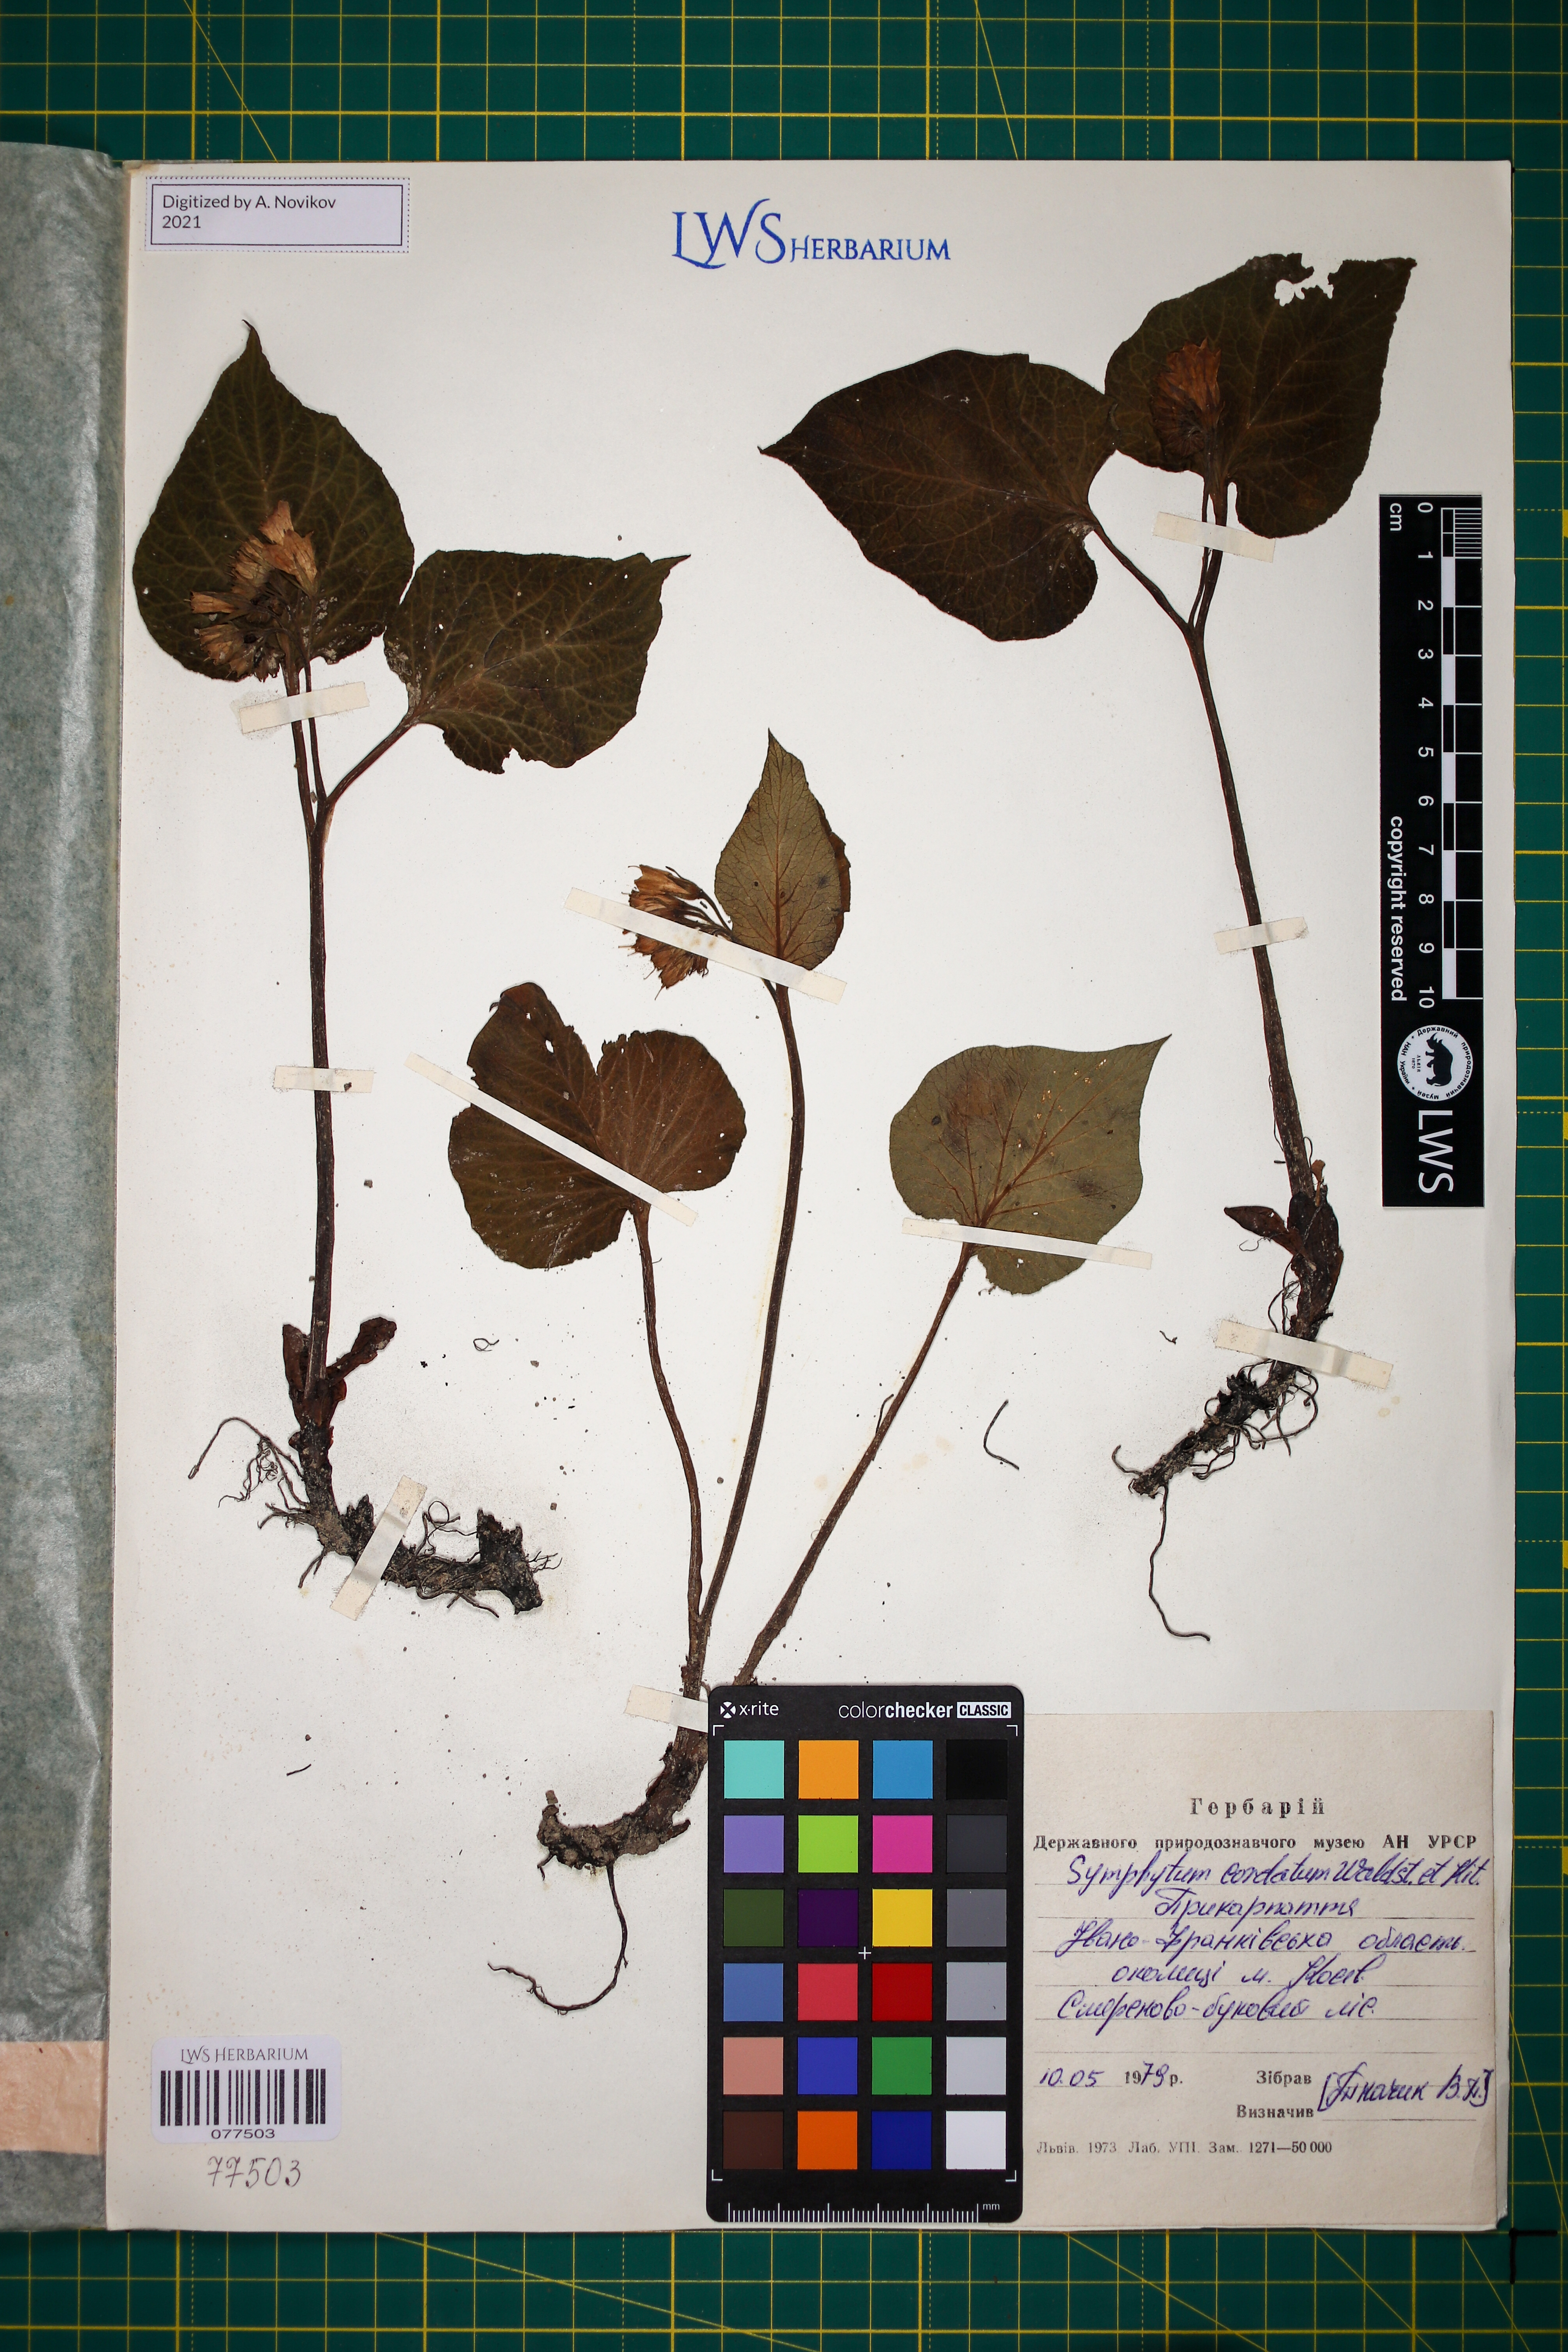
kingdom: Plantae
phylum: Tracheophyta
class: Magnoliopsida
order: Boraginales
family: Boraginaceae
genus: Symphytum
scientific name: Symphytum cordatum
